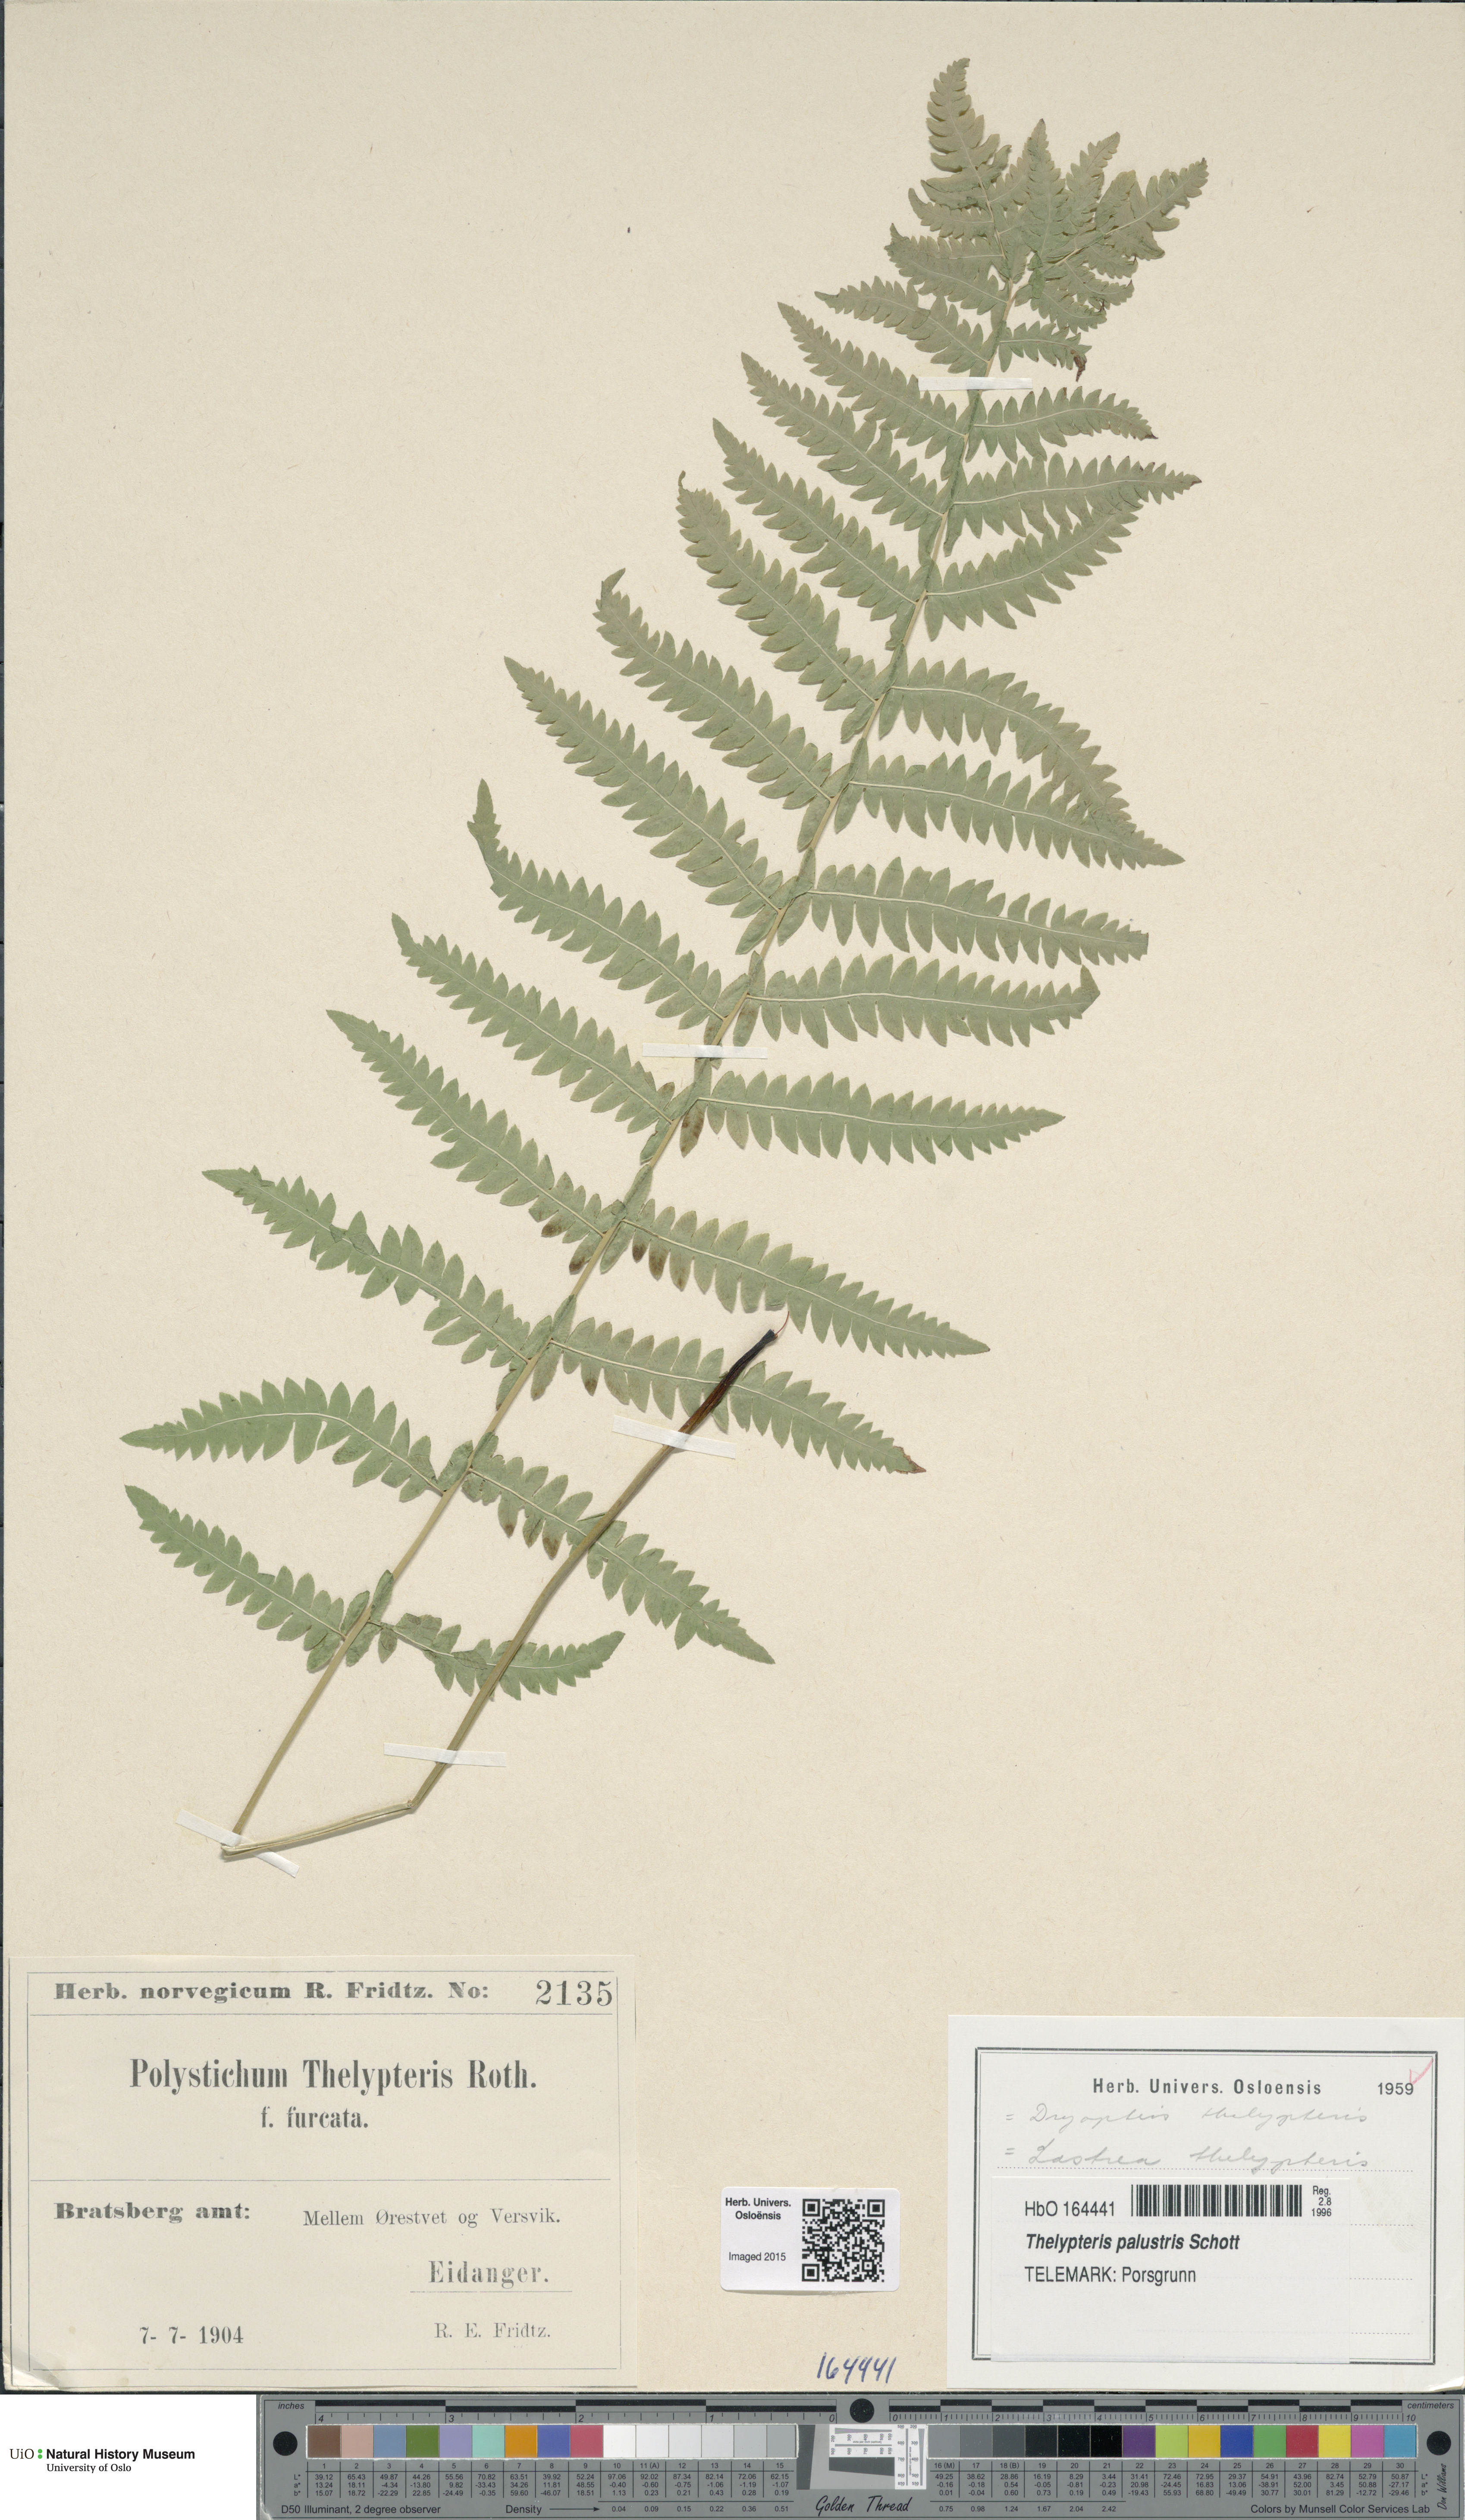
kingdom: Plantae
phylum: Tracheophyta
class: Polypodiopsida
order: Polypodiales
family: Thelypteridaceae
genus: Thelypteris
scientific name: Thelypteris palustris
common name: Marsh fern
